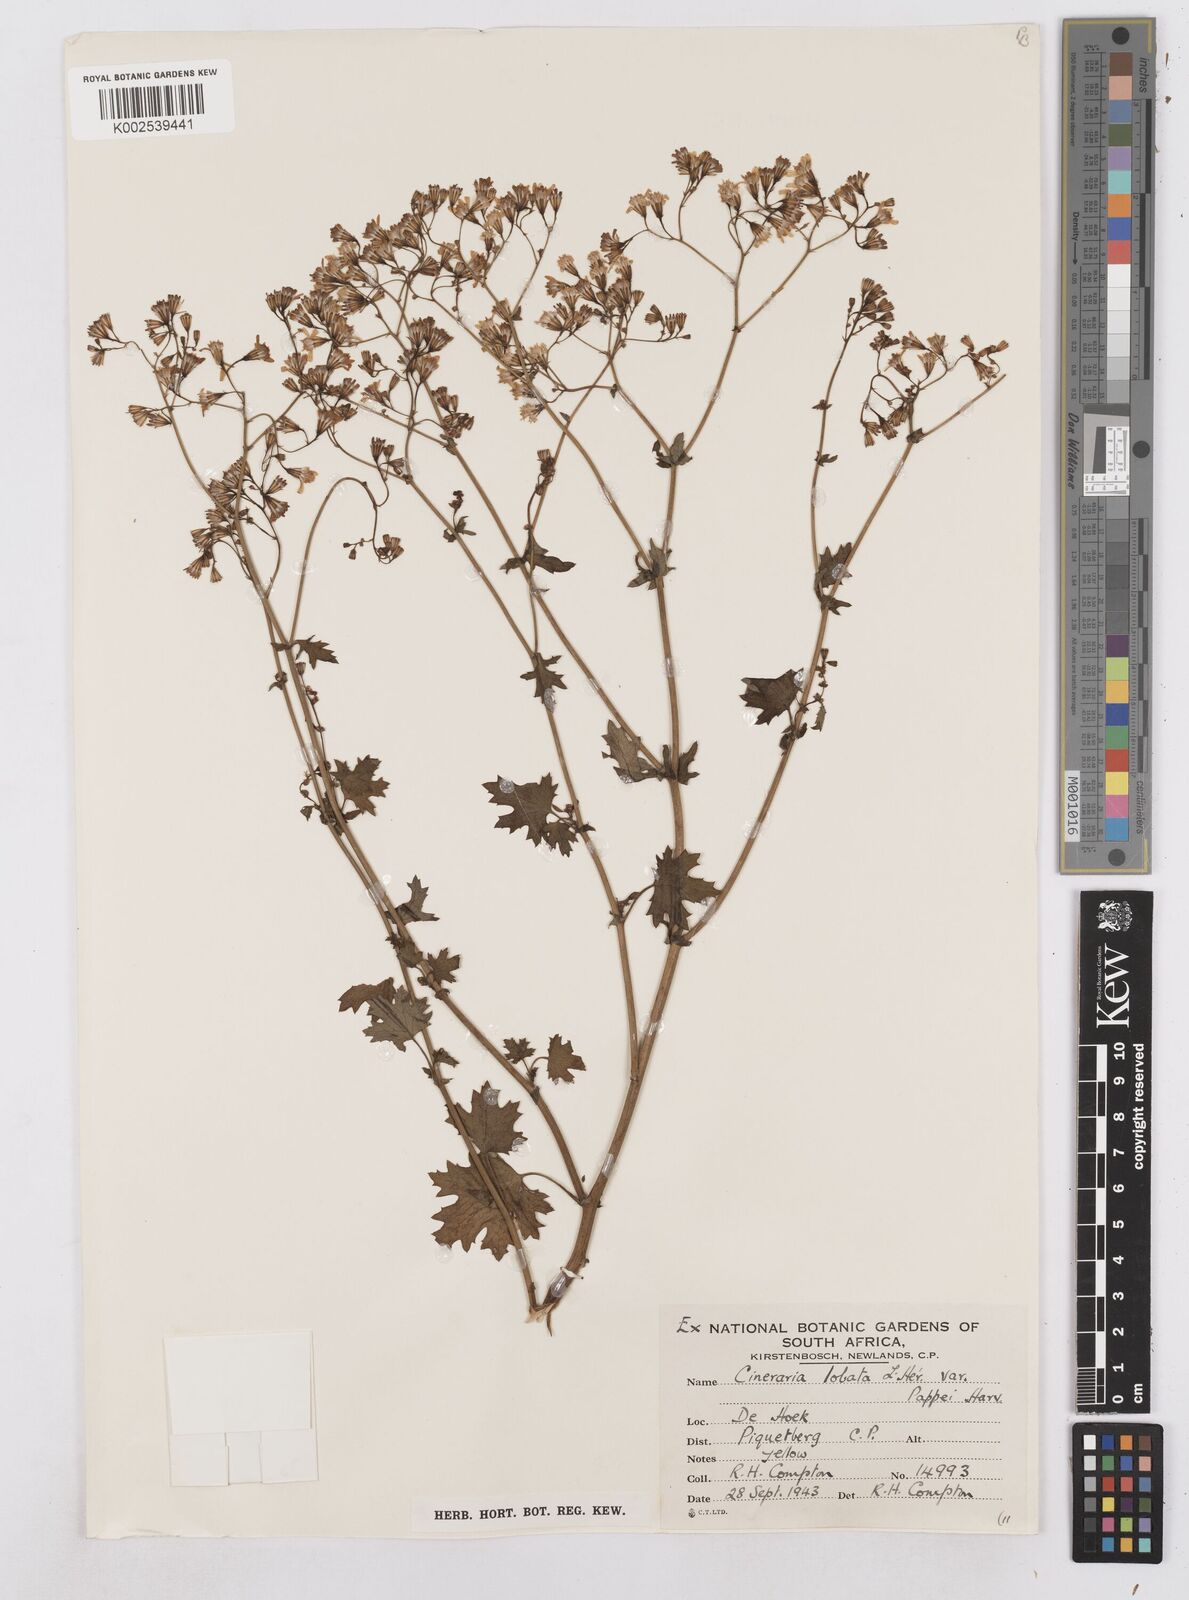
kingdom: Plantae
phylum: Tracheophyta
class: Magnoliopsida
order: Asterales
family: Asteraceae
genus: Cineraria
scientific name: Cineraria
